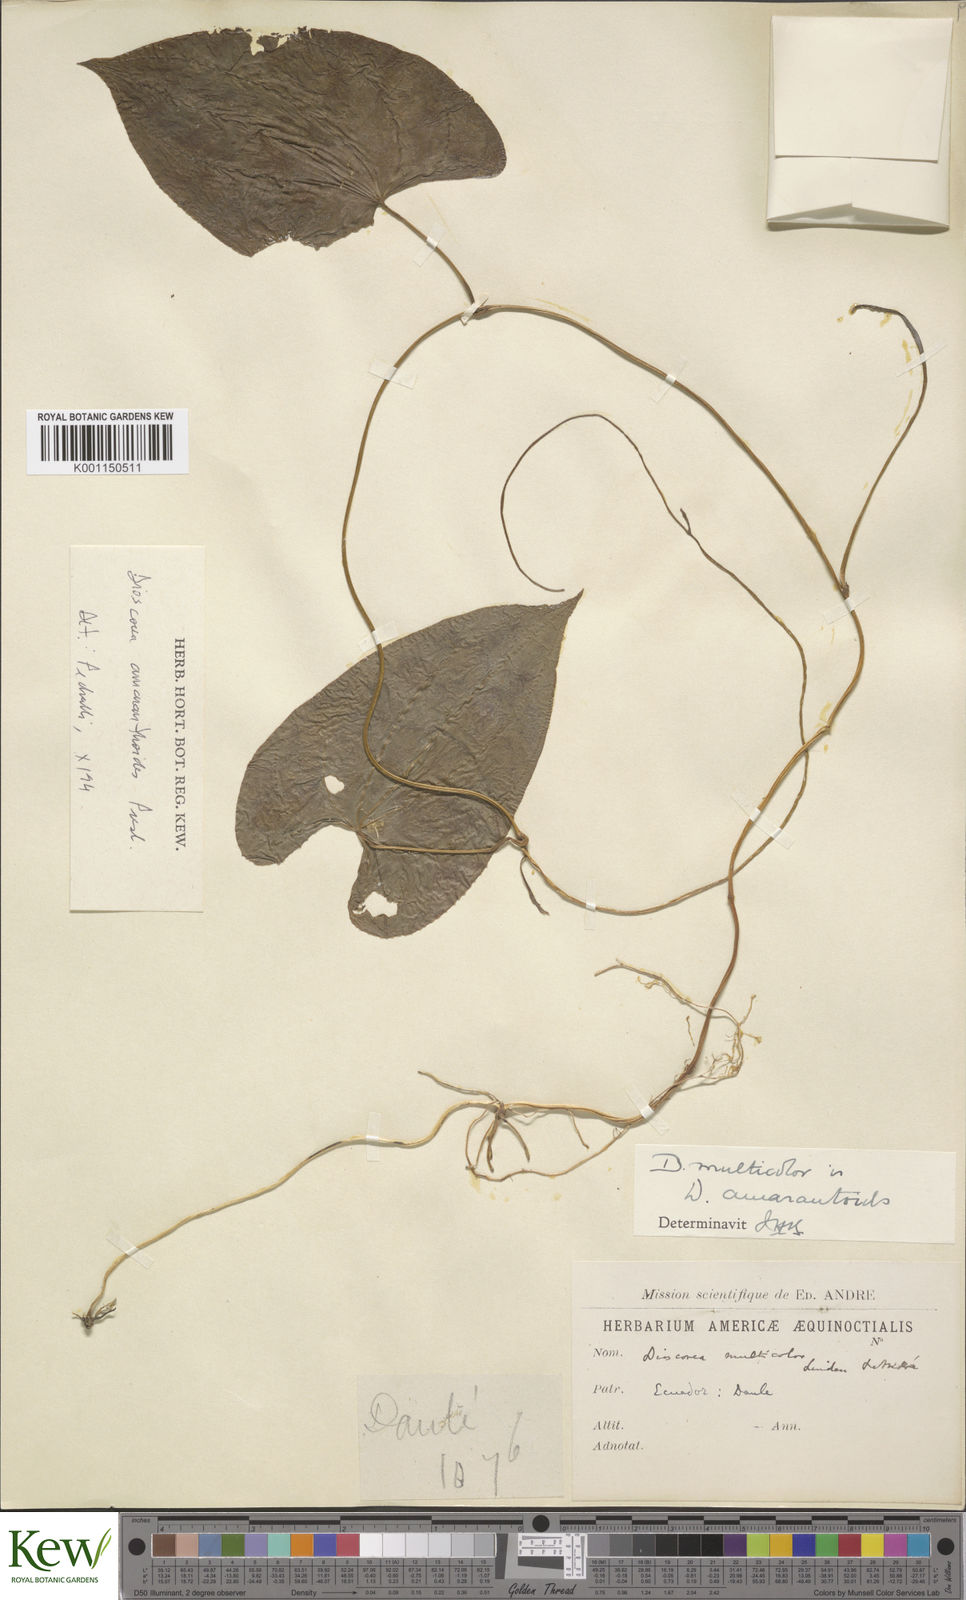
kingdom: Plantae
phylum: Tracheophyta
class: Liliopsida
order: Dioscoreales
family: Dioscoreaceae
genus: Dioscorea
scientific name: Dioscorea amaranthoides
